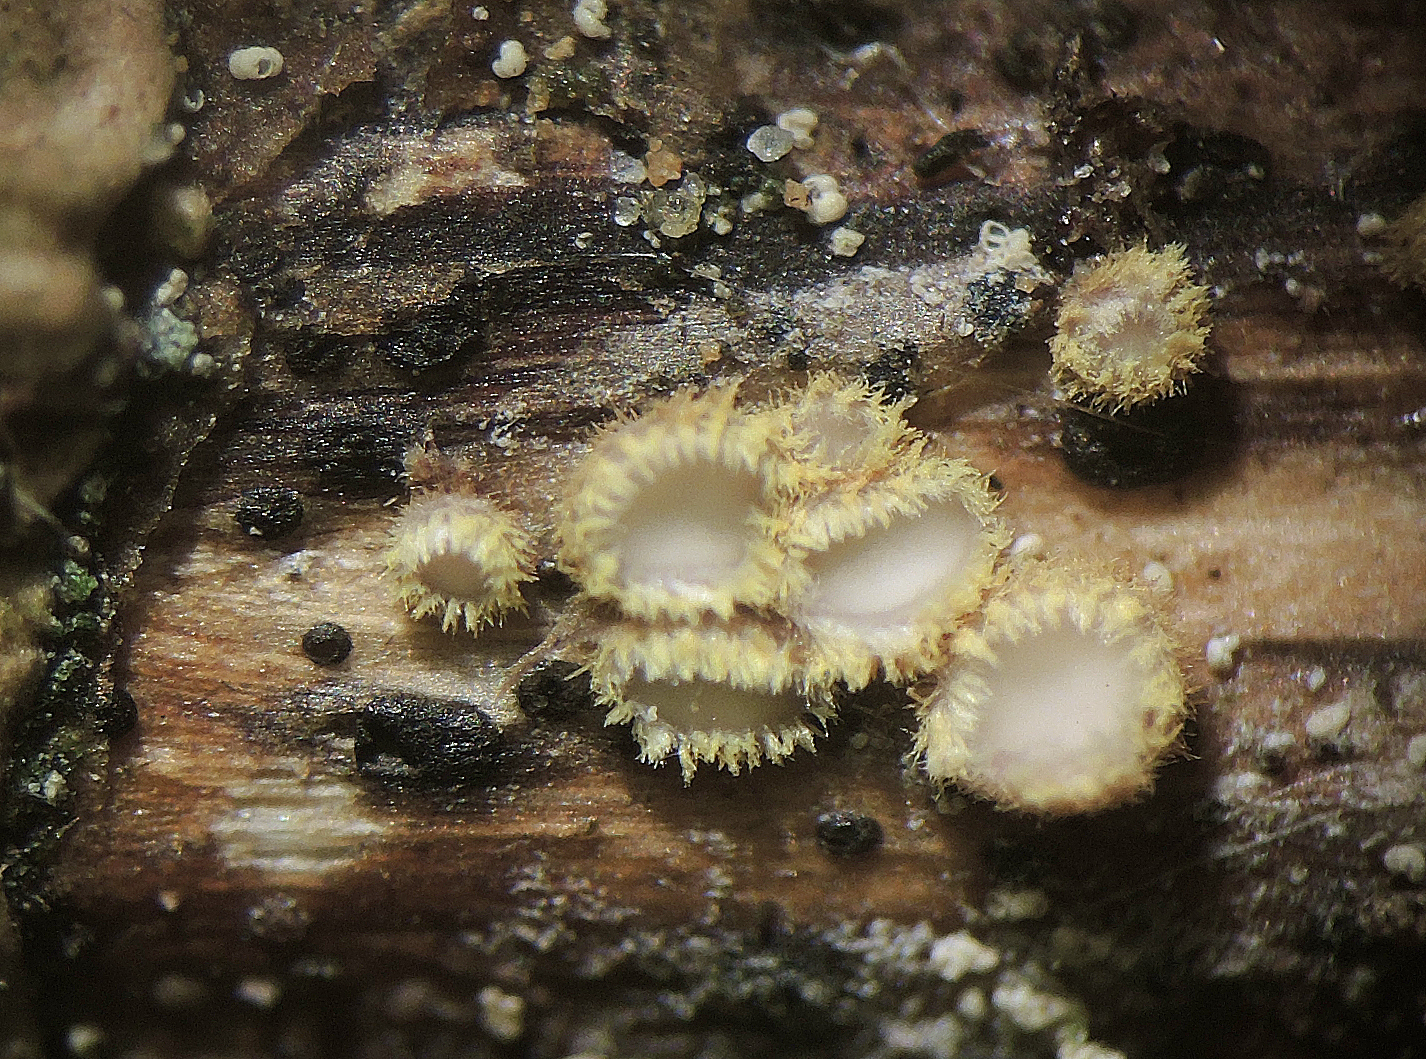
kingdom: Fungi
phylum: Ascomycota
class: Leotiomycetes
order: Helotiales
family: Lachnaceae
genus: Lachnum
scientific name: Lachnum sulphureum
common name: svovlhåret frynseskive
